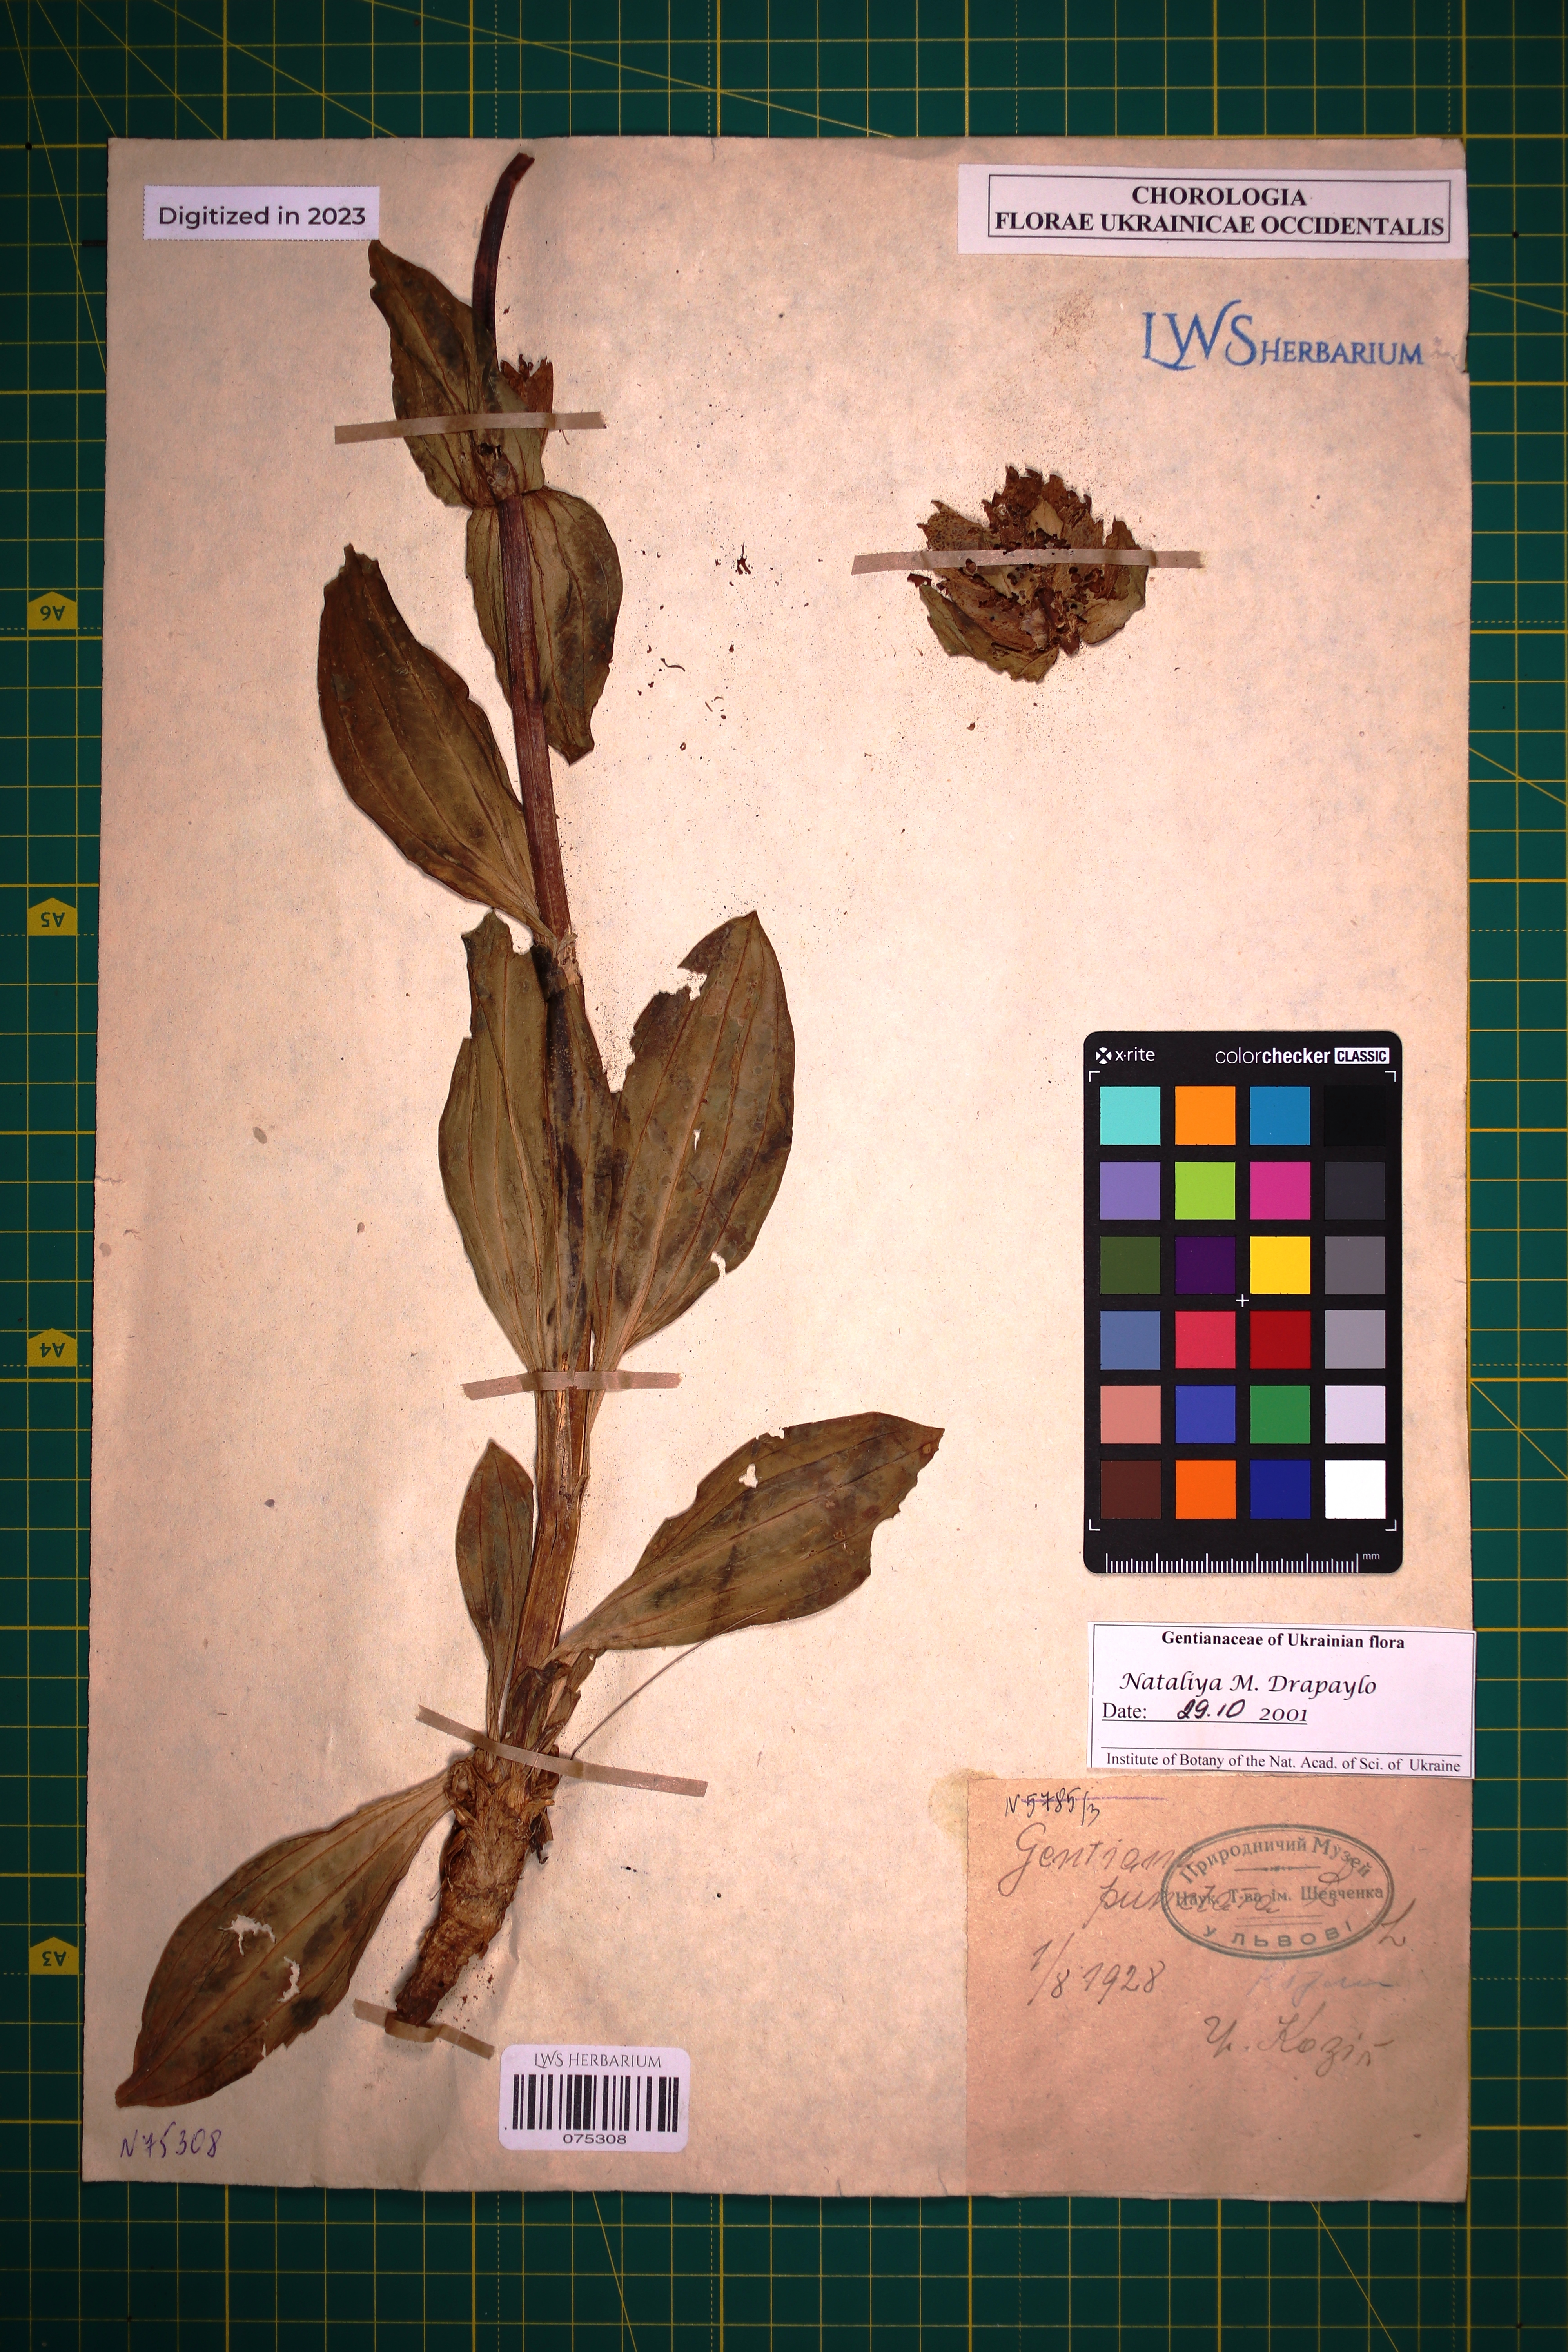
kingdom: Plantae
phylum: Tracheophyta
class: Magnoliopsida
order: Gentianales
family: Gentianaceae
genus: Gentiana
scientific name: Gentiana punctata
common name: Spotted gentian
